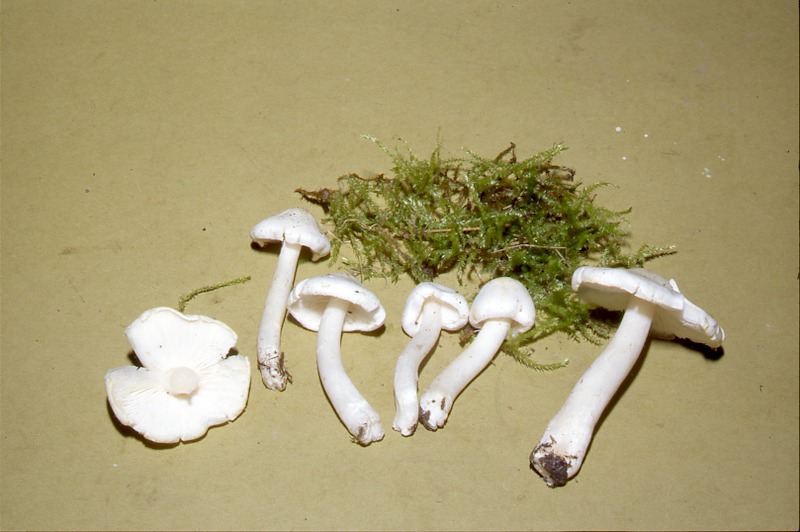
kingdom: Fungi
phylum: Basidiomycota
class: Agaricomycetes
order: Agaricales
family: Tricholomataceae
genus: Tricholoma
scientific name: Tricholoma albatum
